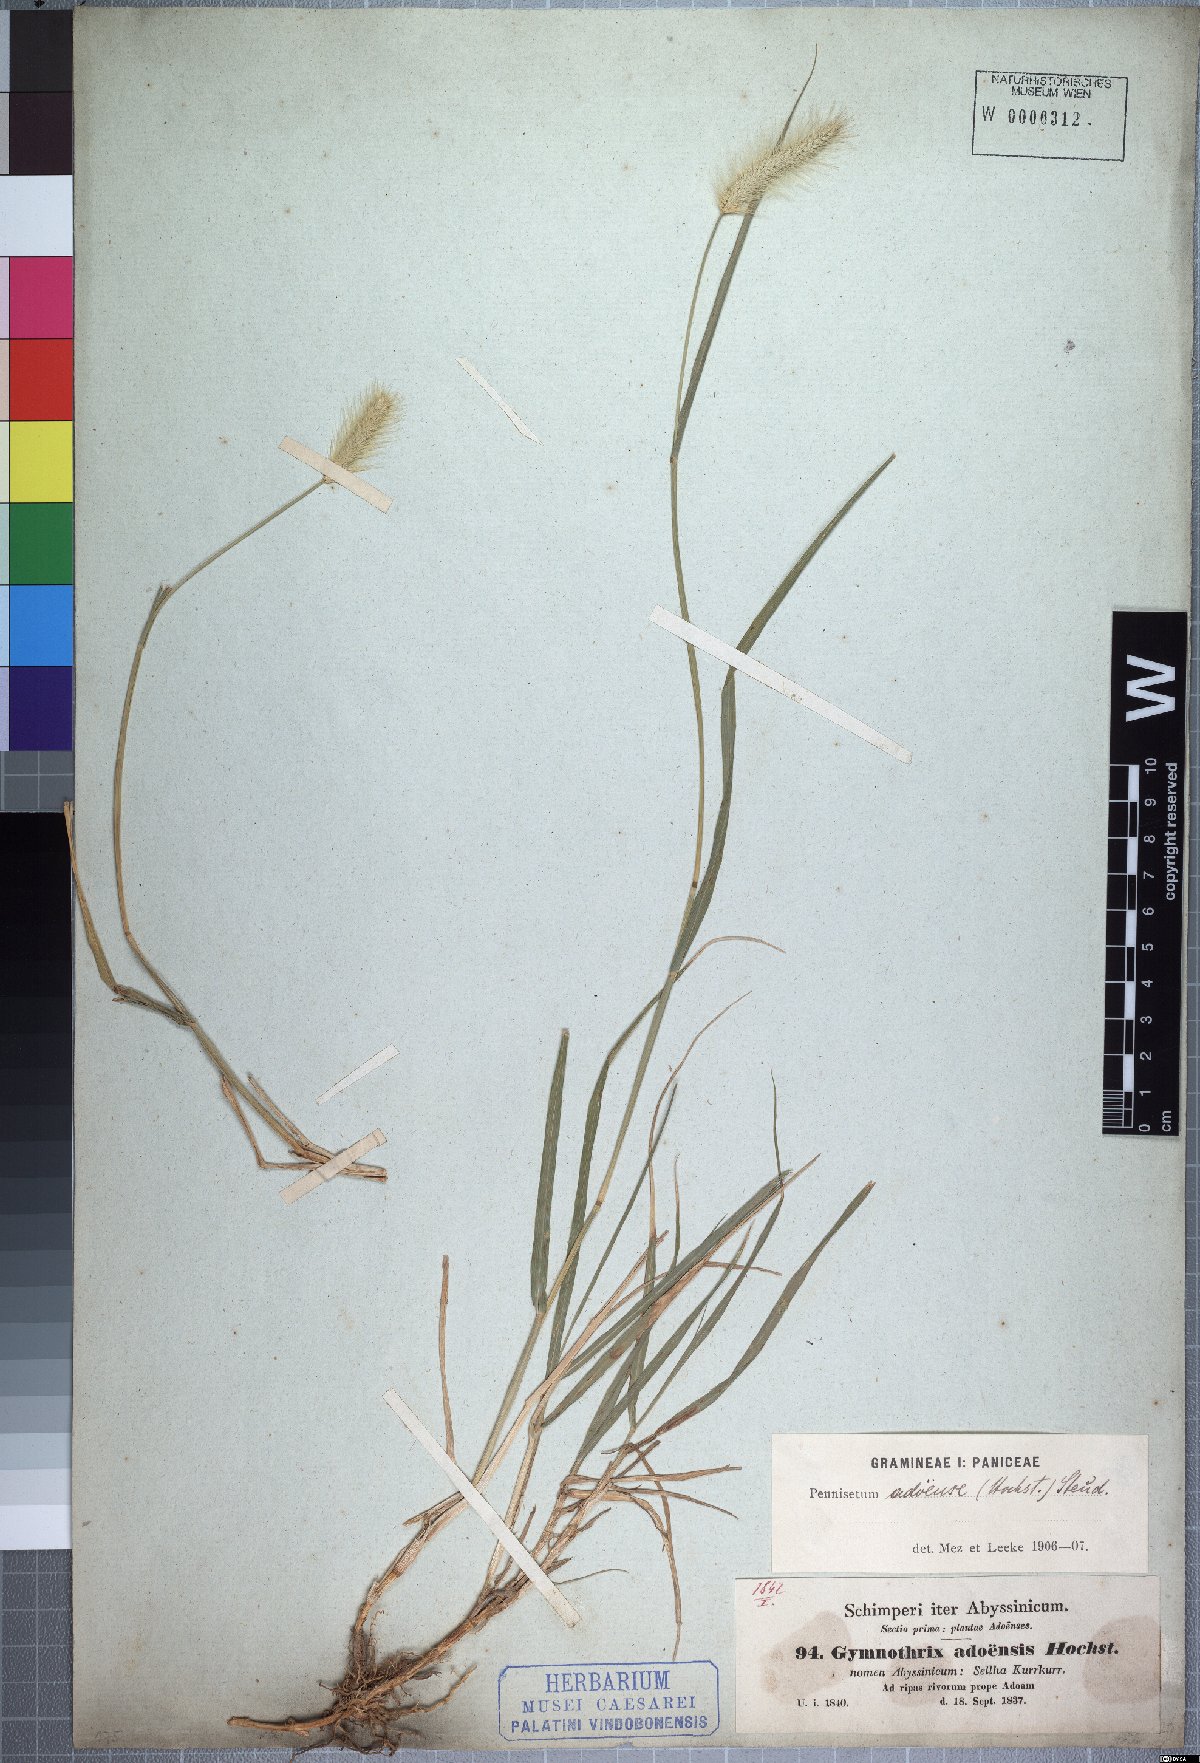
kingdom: Plantae
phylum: Tracheophyta
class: Liliopsida
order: Poales
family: Poaceae
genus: Cenchrus
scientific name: Cenchrus geniculatus
